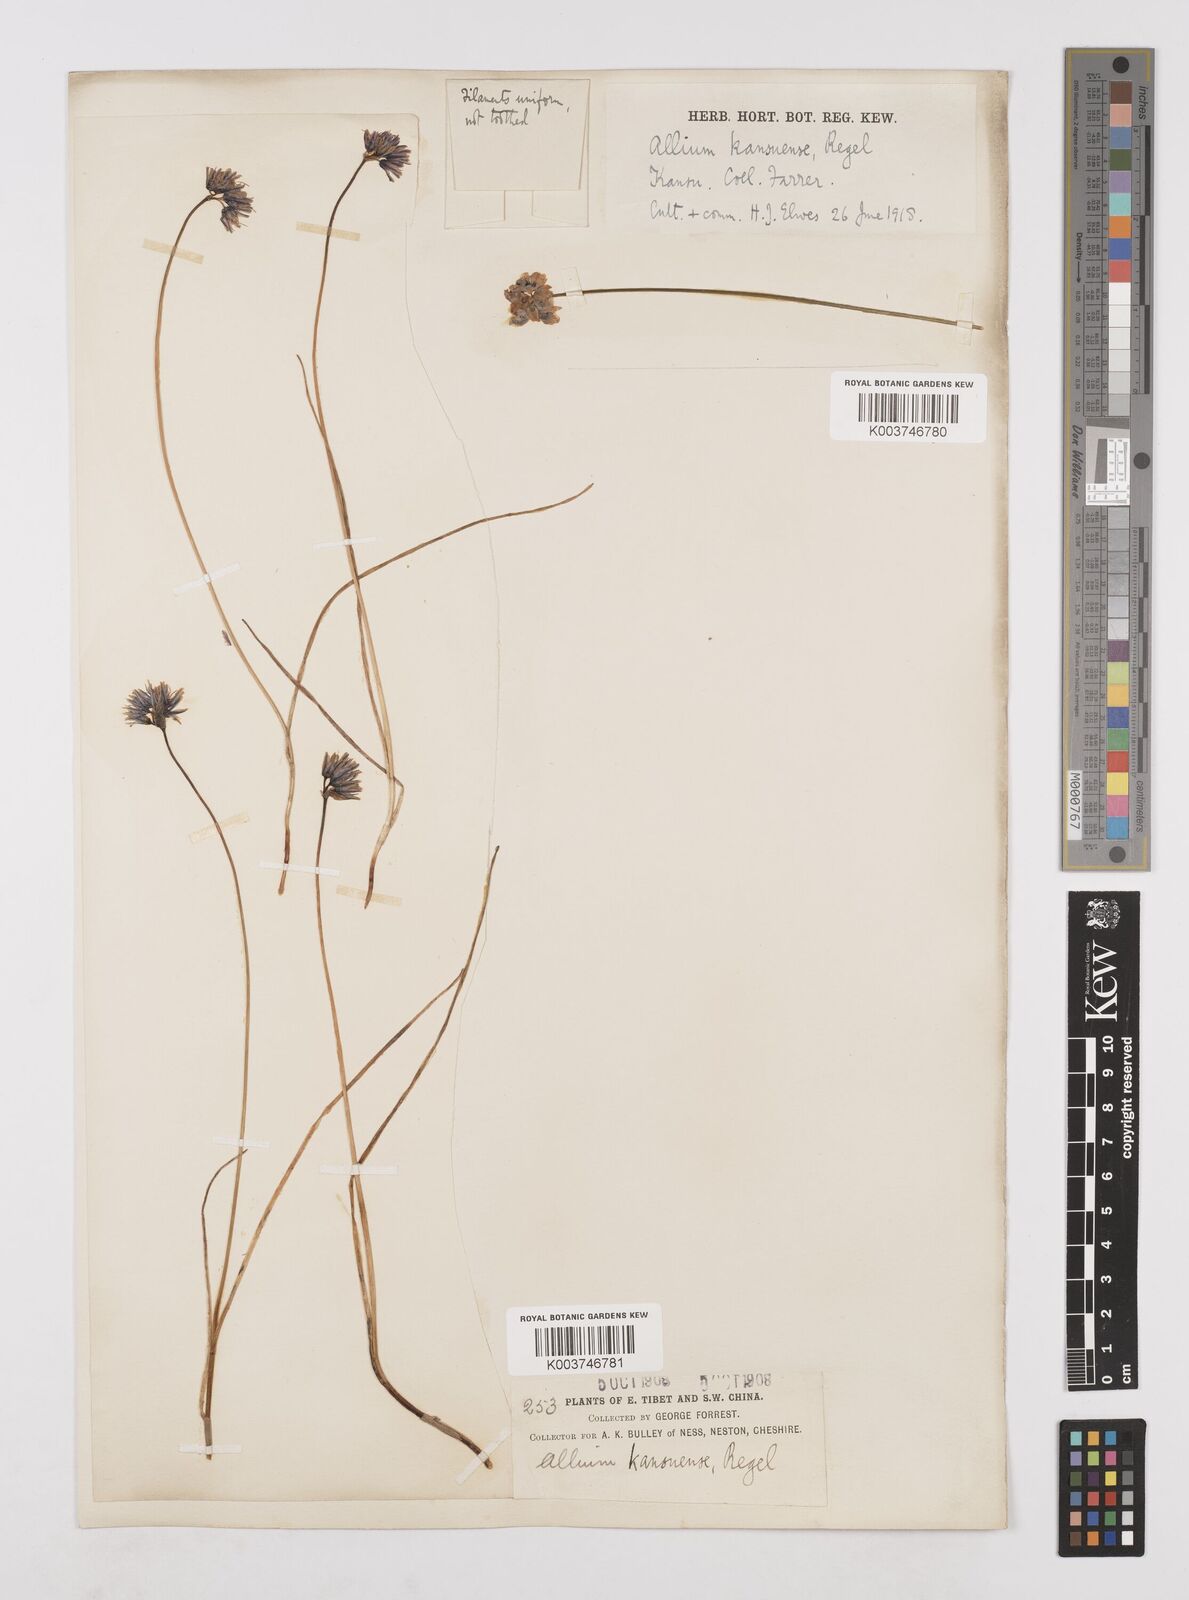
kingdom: Plantae
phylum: Tracheophyta
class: Liliopsida
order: Asparagales
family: Amaryllidaceae
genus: Allium
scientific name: Allium sikkimense
